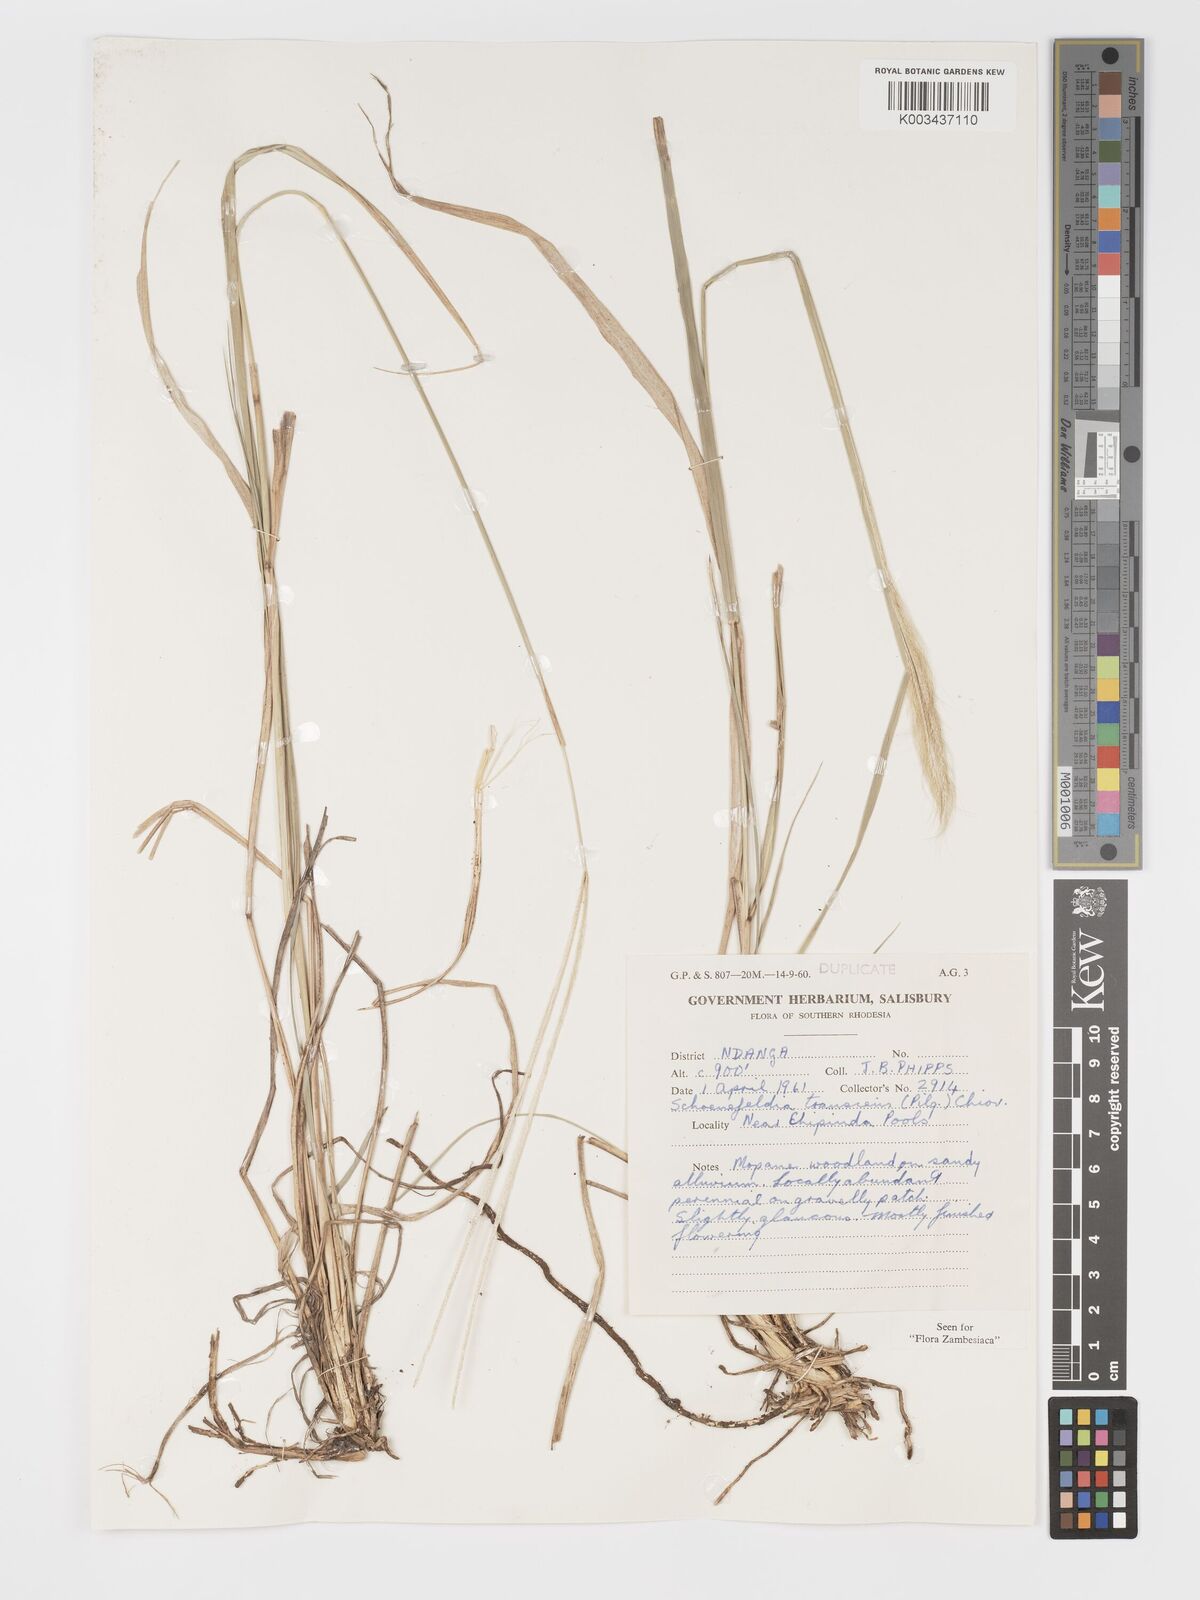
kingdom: Plantae
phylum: Tracheophyta
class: Liliopsida
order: Poales
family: Poaceae
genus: Schoenefeldia
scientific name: Schoenefeldia transiens
